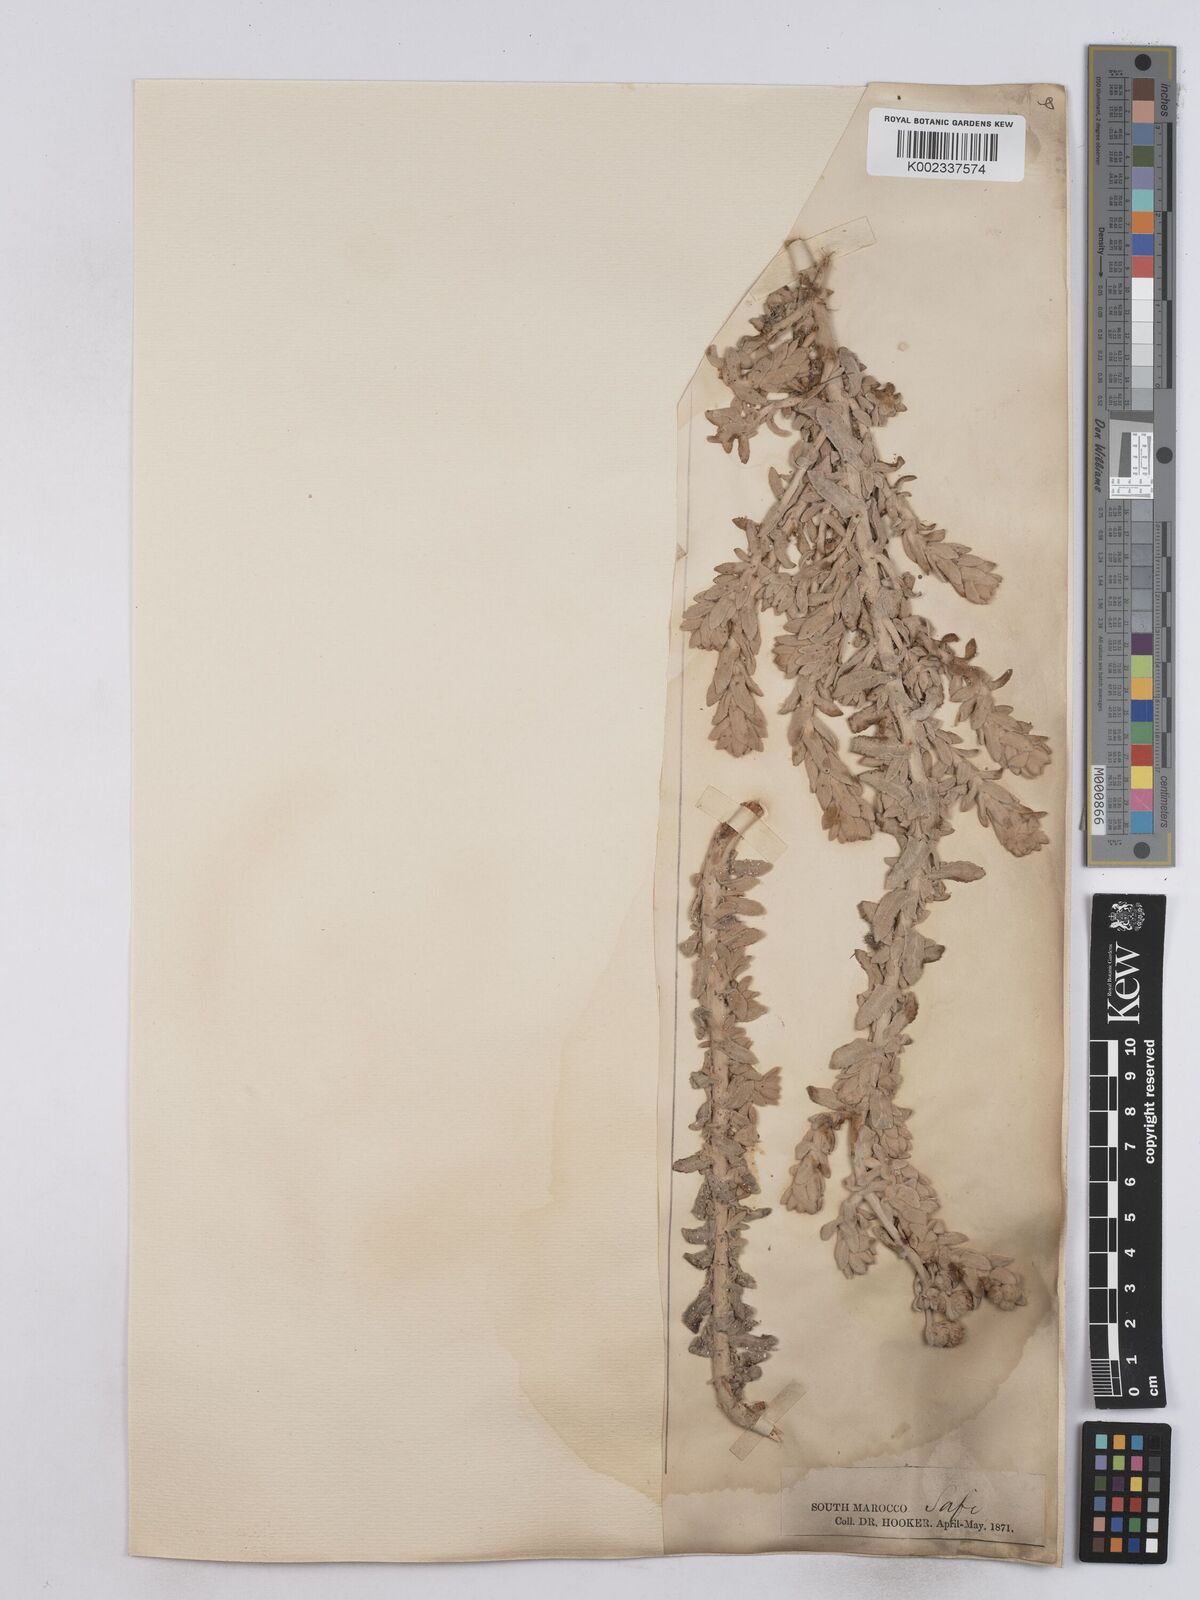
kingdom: Plantae
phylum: Tracheophyta
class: Magnoliopsida
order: Asterales
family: Asteraceae
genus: Achillea
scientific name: Achillea maritima
